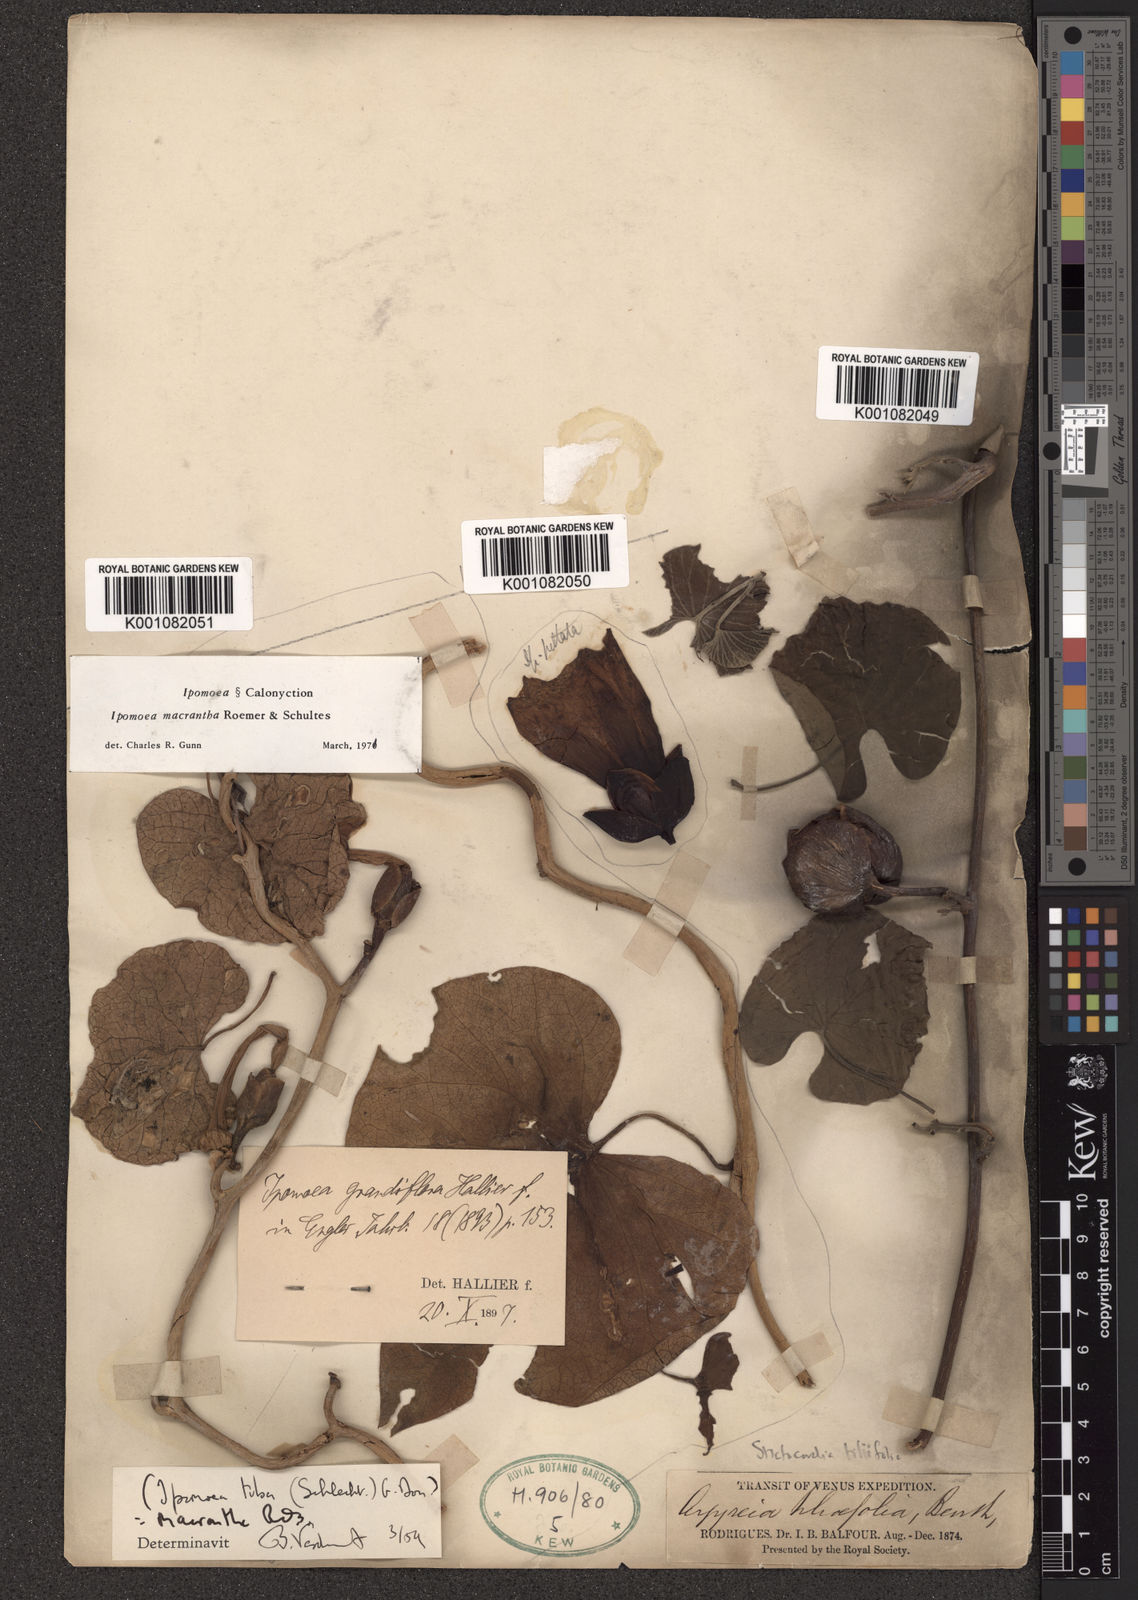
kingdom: Plantae
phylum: Tracheophyta
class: Magnoliopsida
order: Solanales
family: Convolvulaceae
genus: Ipomoea
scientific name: Ipomoea violacea
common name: Beach moonflower
